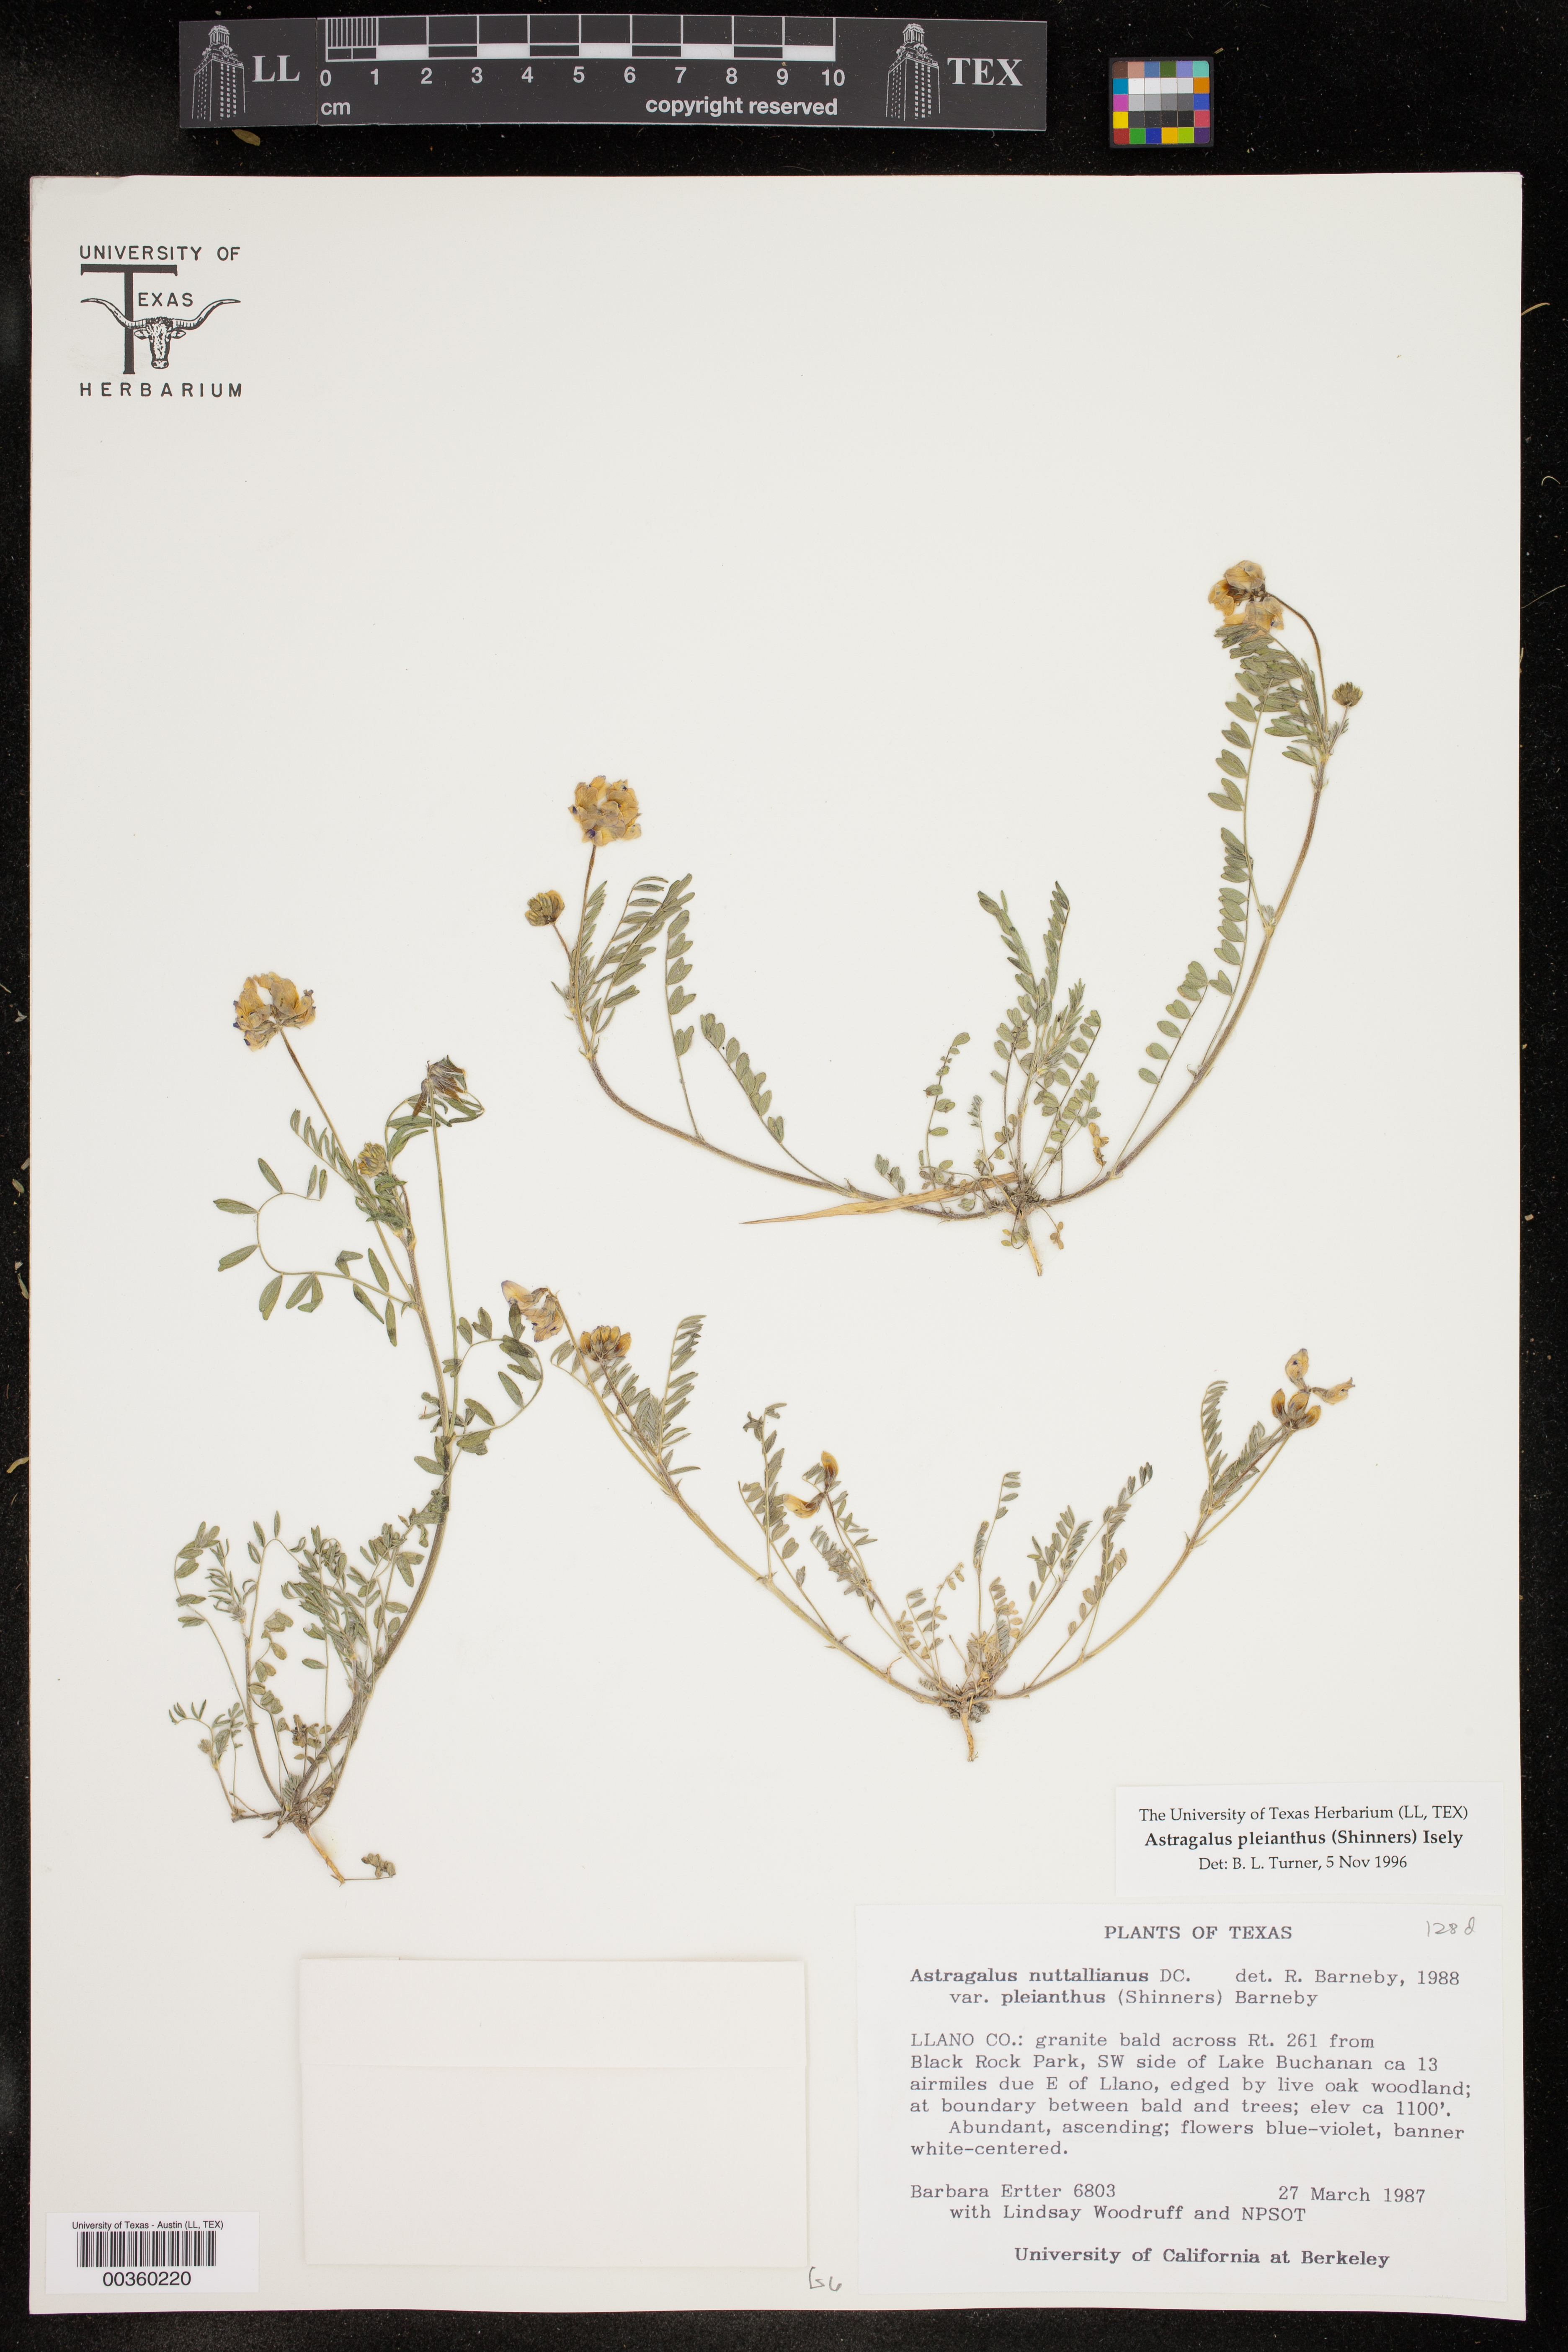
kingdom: Plantae
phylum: Tracheophyta
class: Magnoliopsida
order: Fabales
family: Fabaceae
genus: Astragalus
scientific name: Astragalus pleianthus
